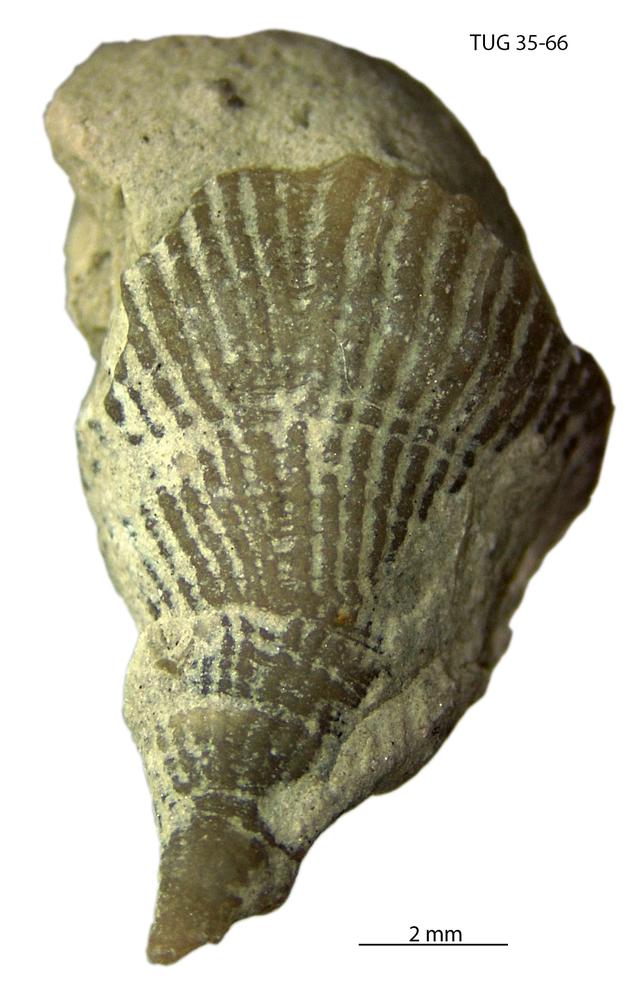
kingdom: Animalia
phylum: Cnidaria
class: Anthozoa
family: Streptelasmatidae
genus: Streptelasma
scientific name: Streptelasma
